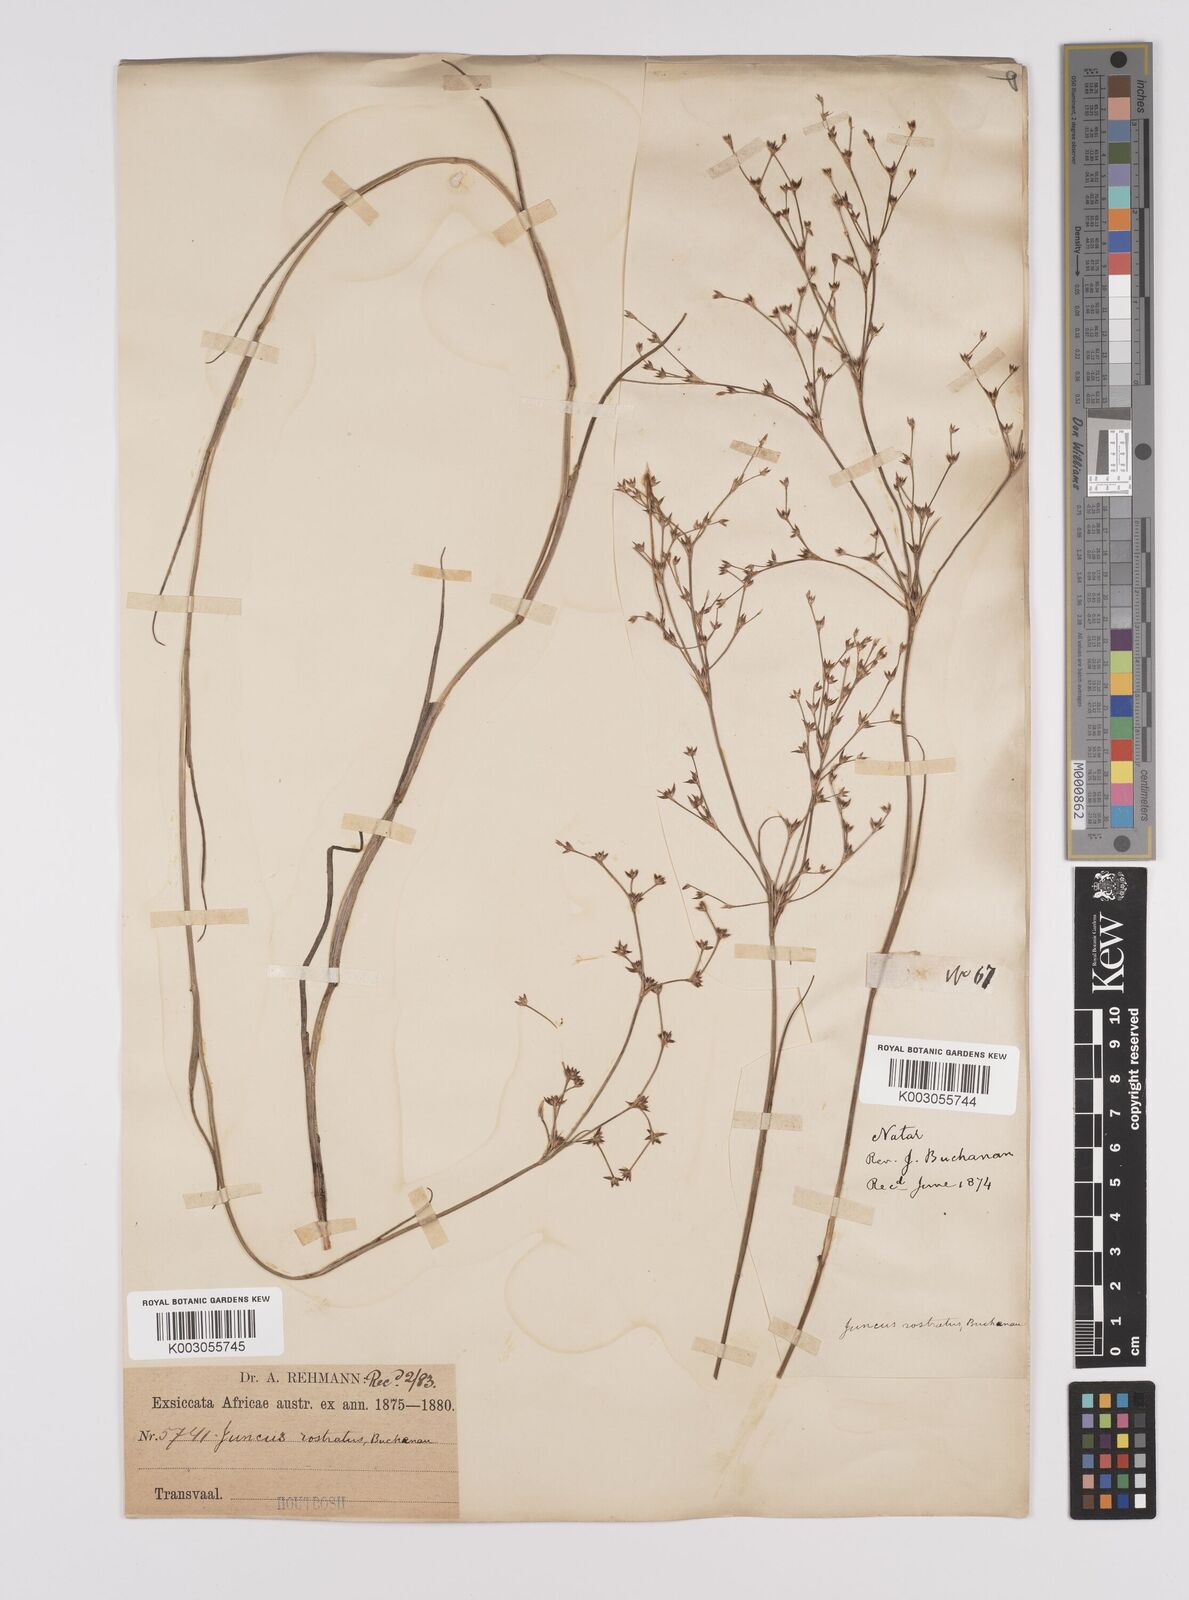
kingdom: Plantae
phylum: Tracheophyta
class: Liliopsida
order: Poales
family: Juncaceae
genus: Juncus
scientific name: Juncus exsertus
